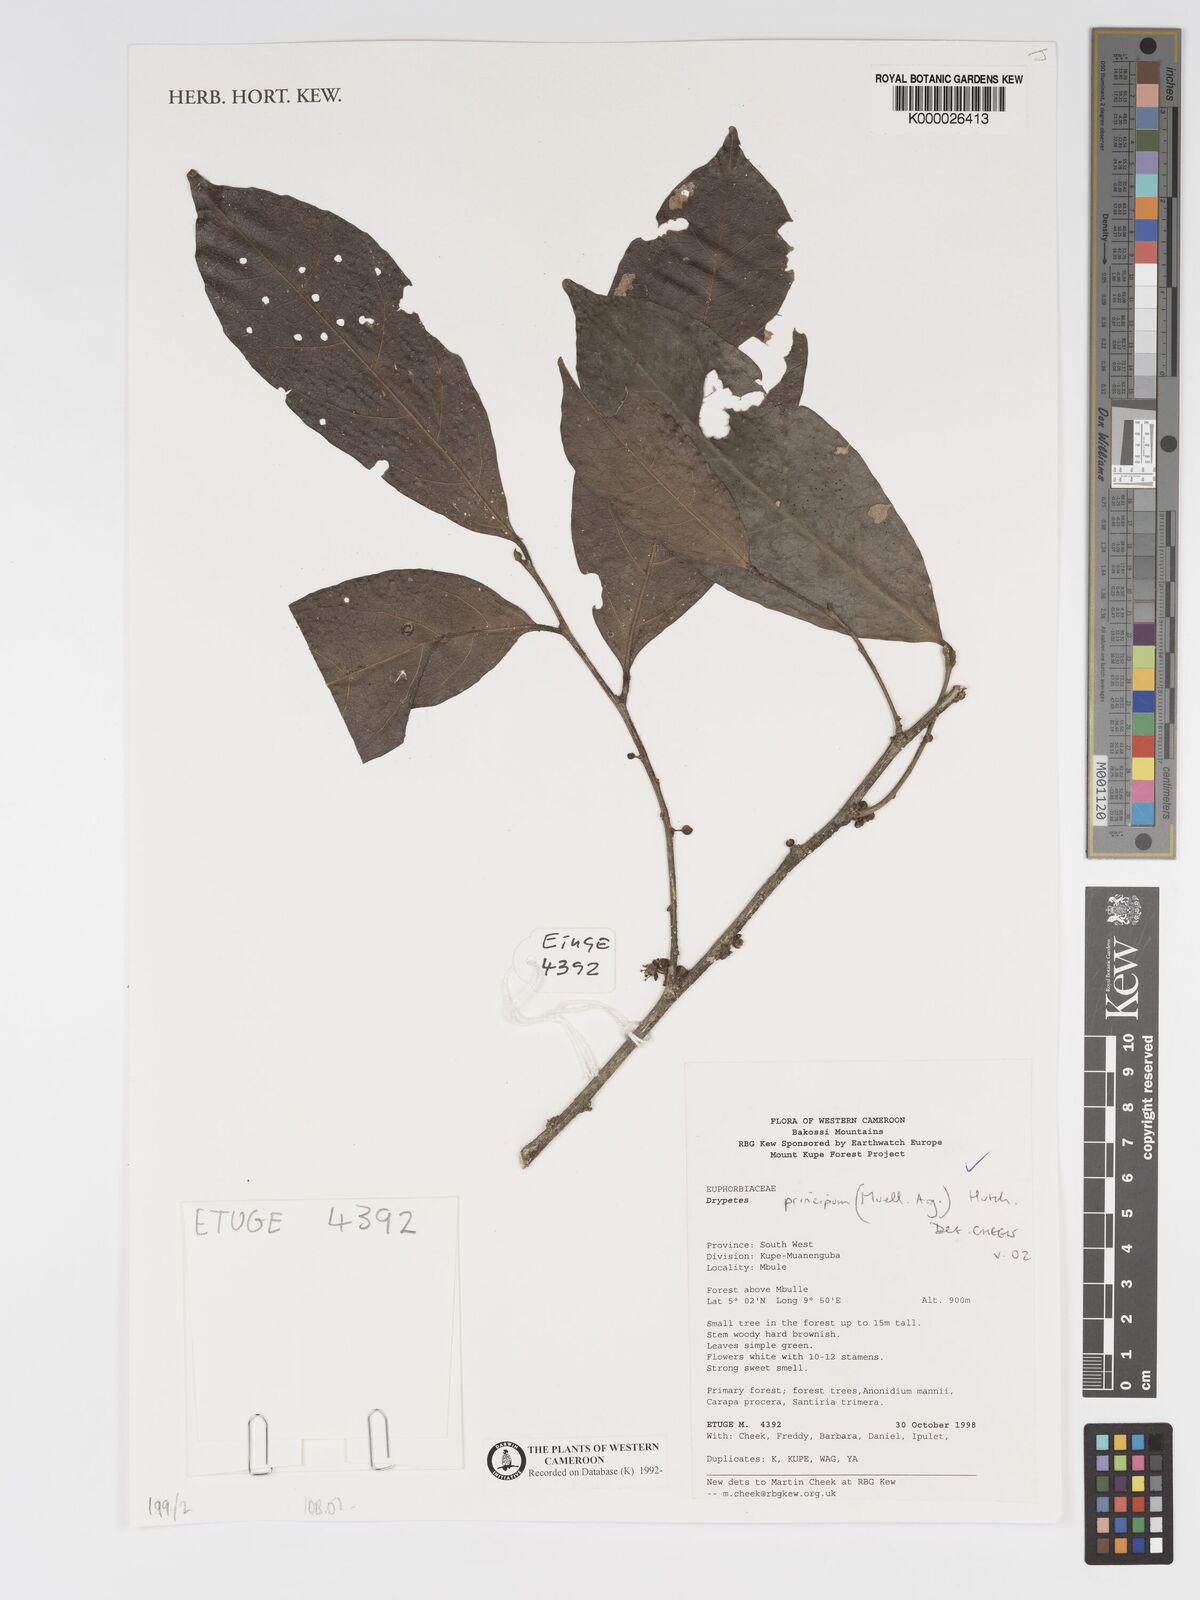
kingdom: Plantae
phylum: Tracheophyta
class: Magnoliopsida
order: Malpighiales
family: Putranjivaceae
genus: Drypetes
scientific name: Drypetes
